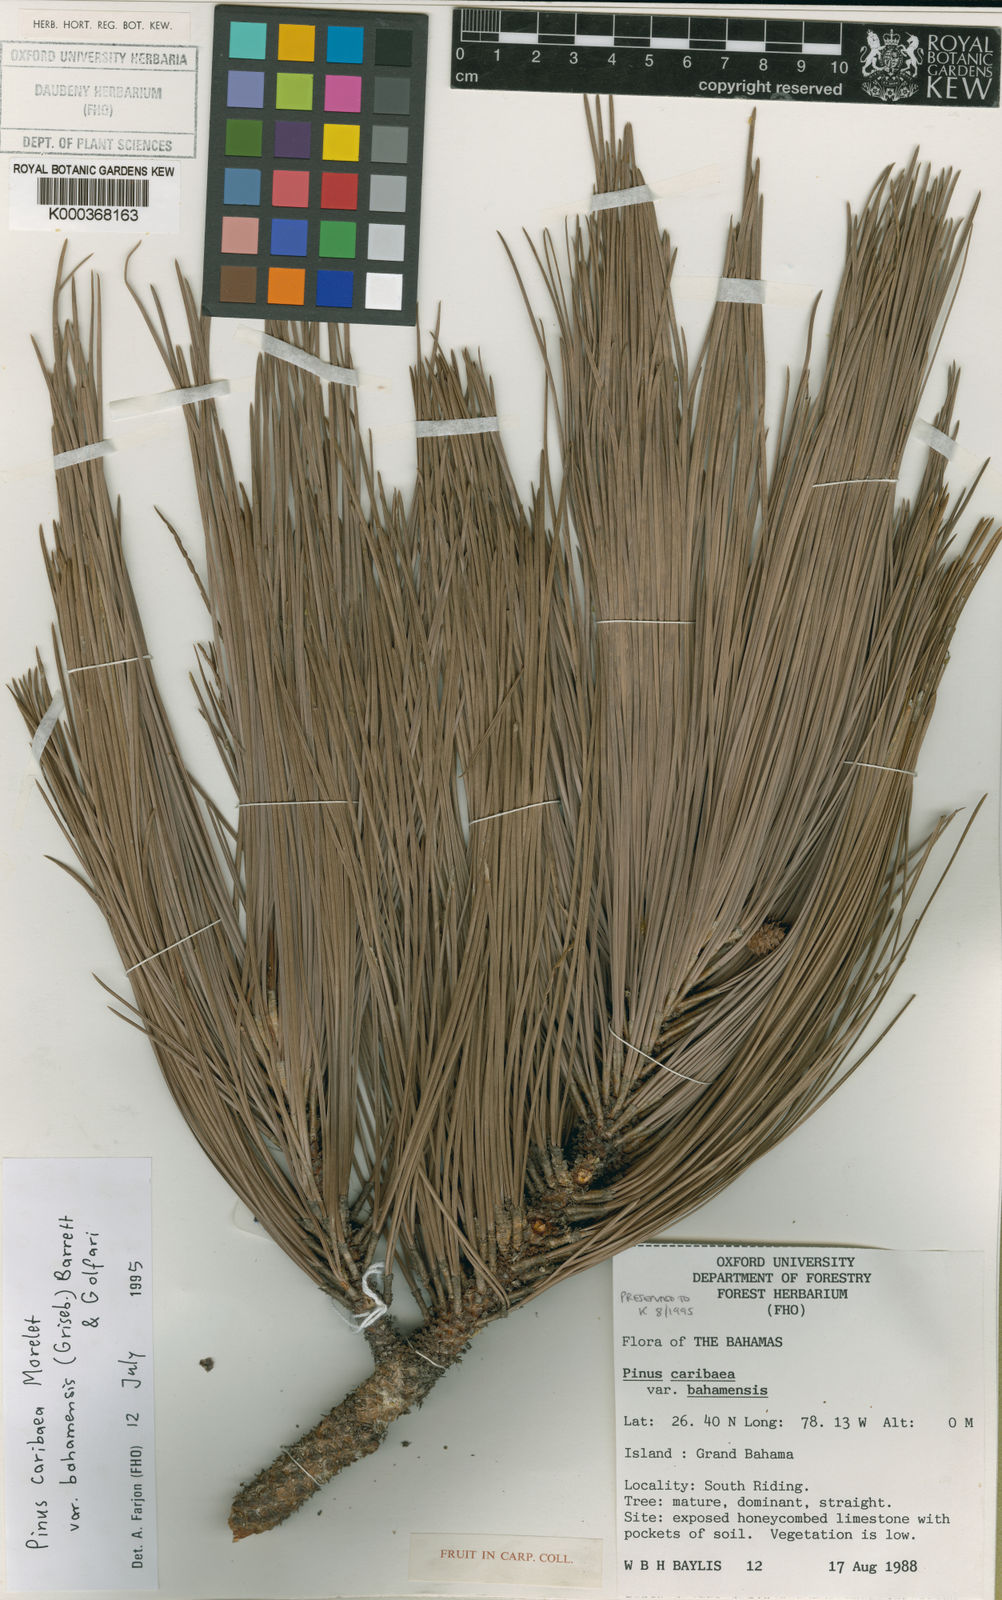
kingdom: Plantae
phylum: Tracheophyta
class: Pinopsida
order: Pinales
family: Pinaceae
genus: Pinus
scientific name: Pinus caribaea
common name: Caribbean pine
